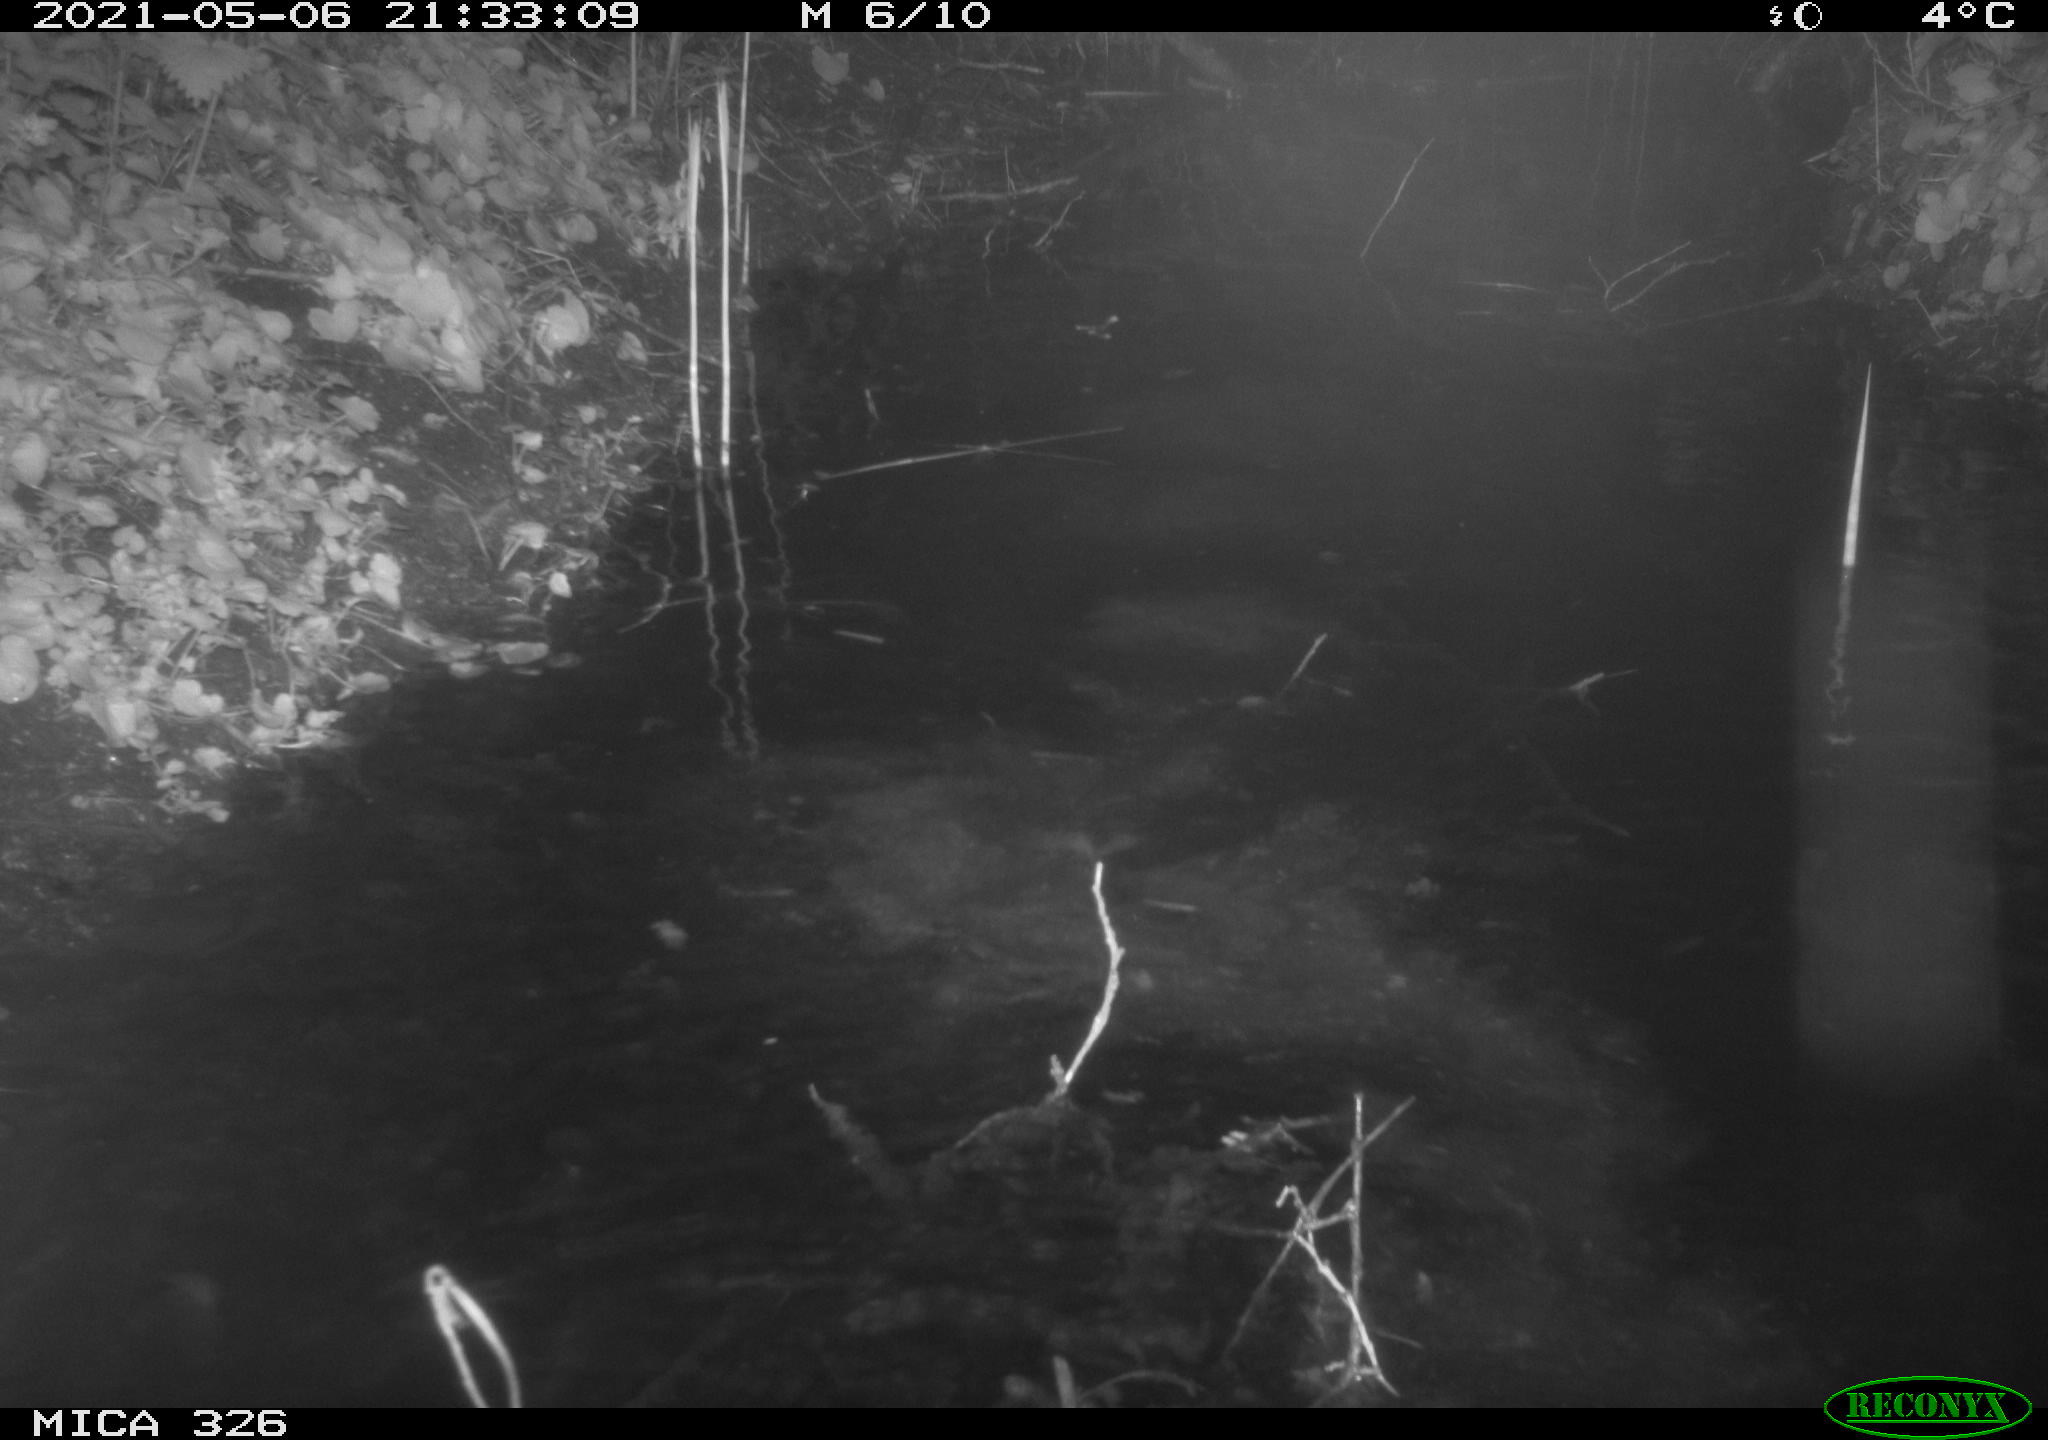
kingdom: Animalia
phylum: Chordata
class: Mammalia
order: Rodentia
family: Myocastoridae
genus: Myocastor
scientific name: Myocastor coypus
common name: Coypu
